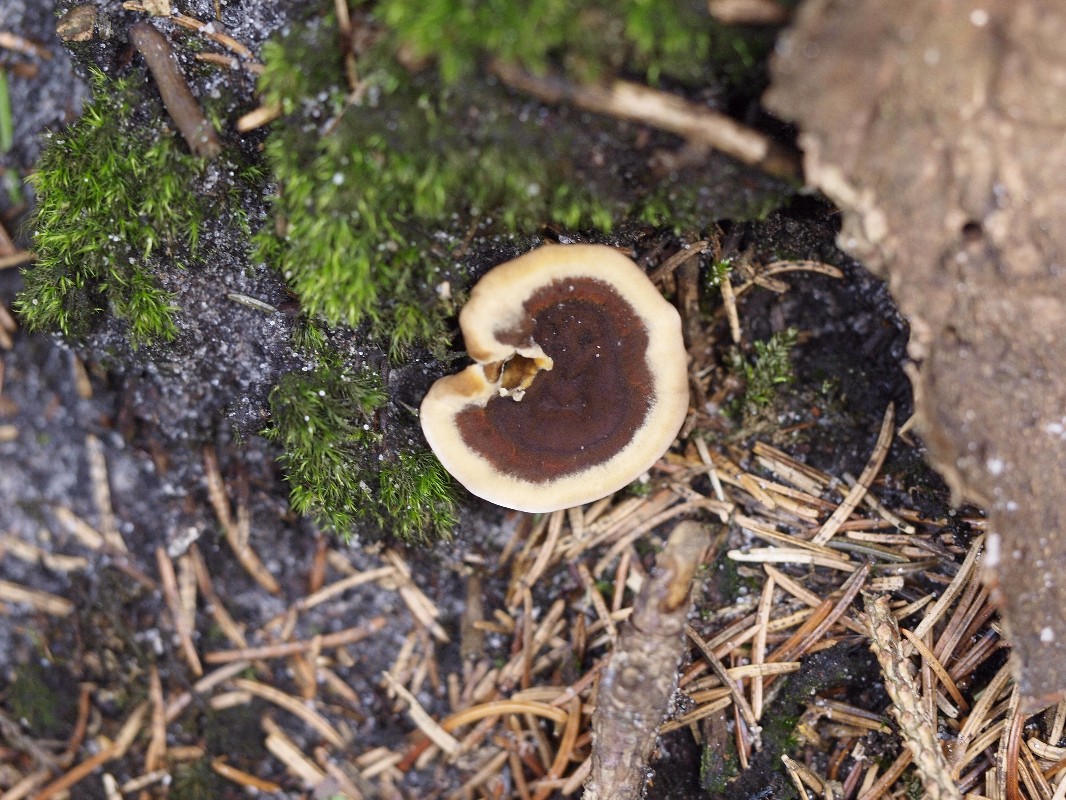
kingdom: Fungi
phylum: Basidiomycota
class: Agaricomycetes
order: Hymenochaetales
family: Hymenochaetaceae
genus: Coltricia
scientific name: Coltricia perennis
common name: almindelig sandporesvamp
